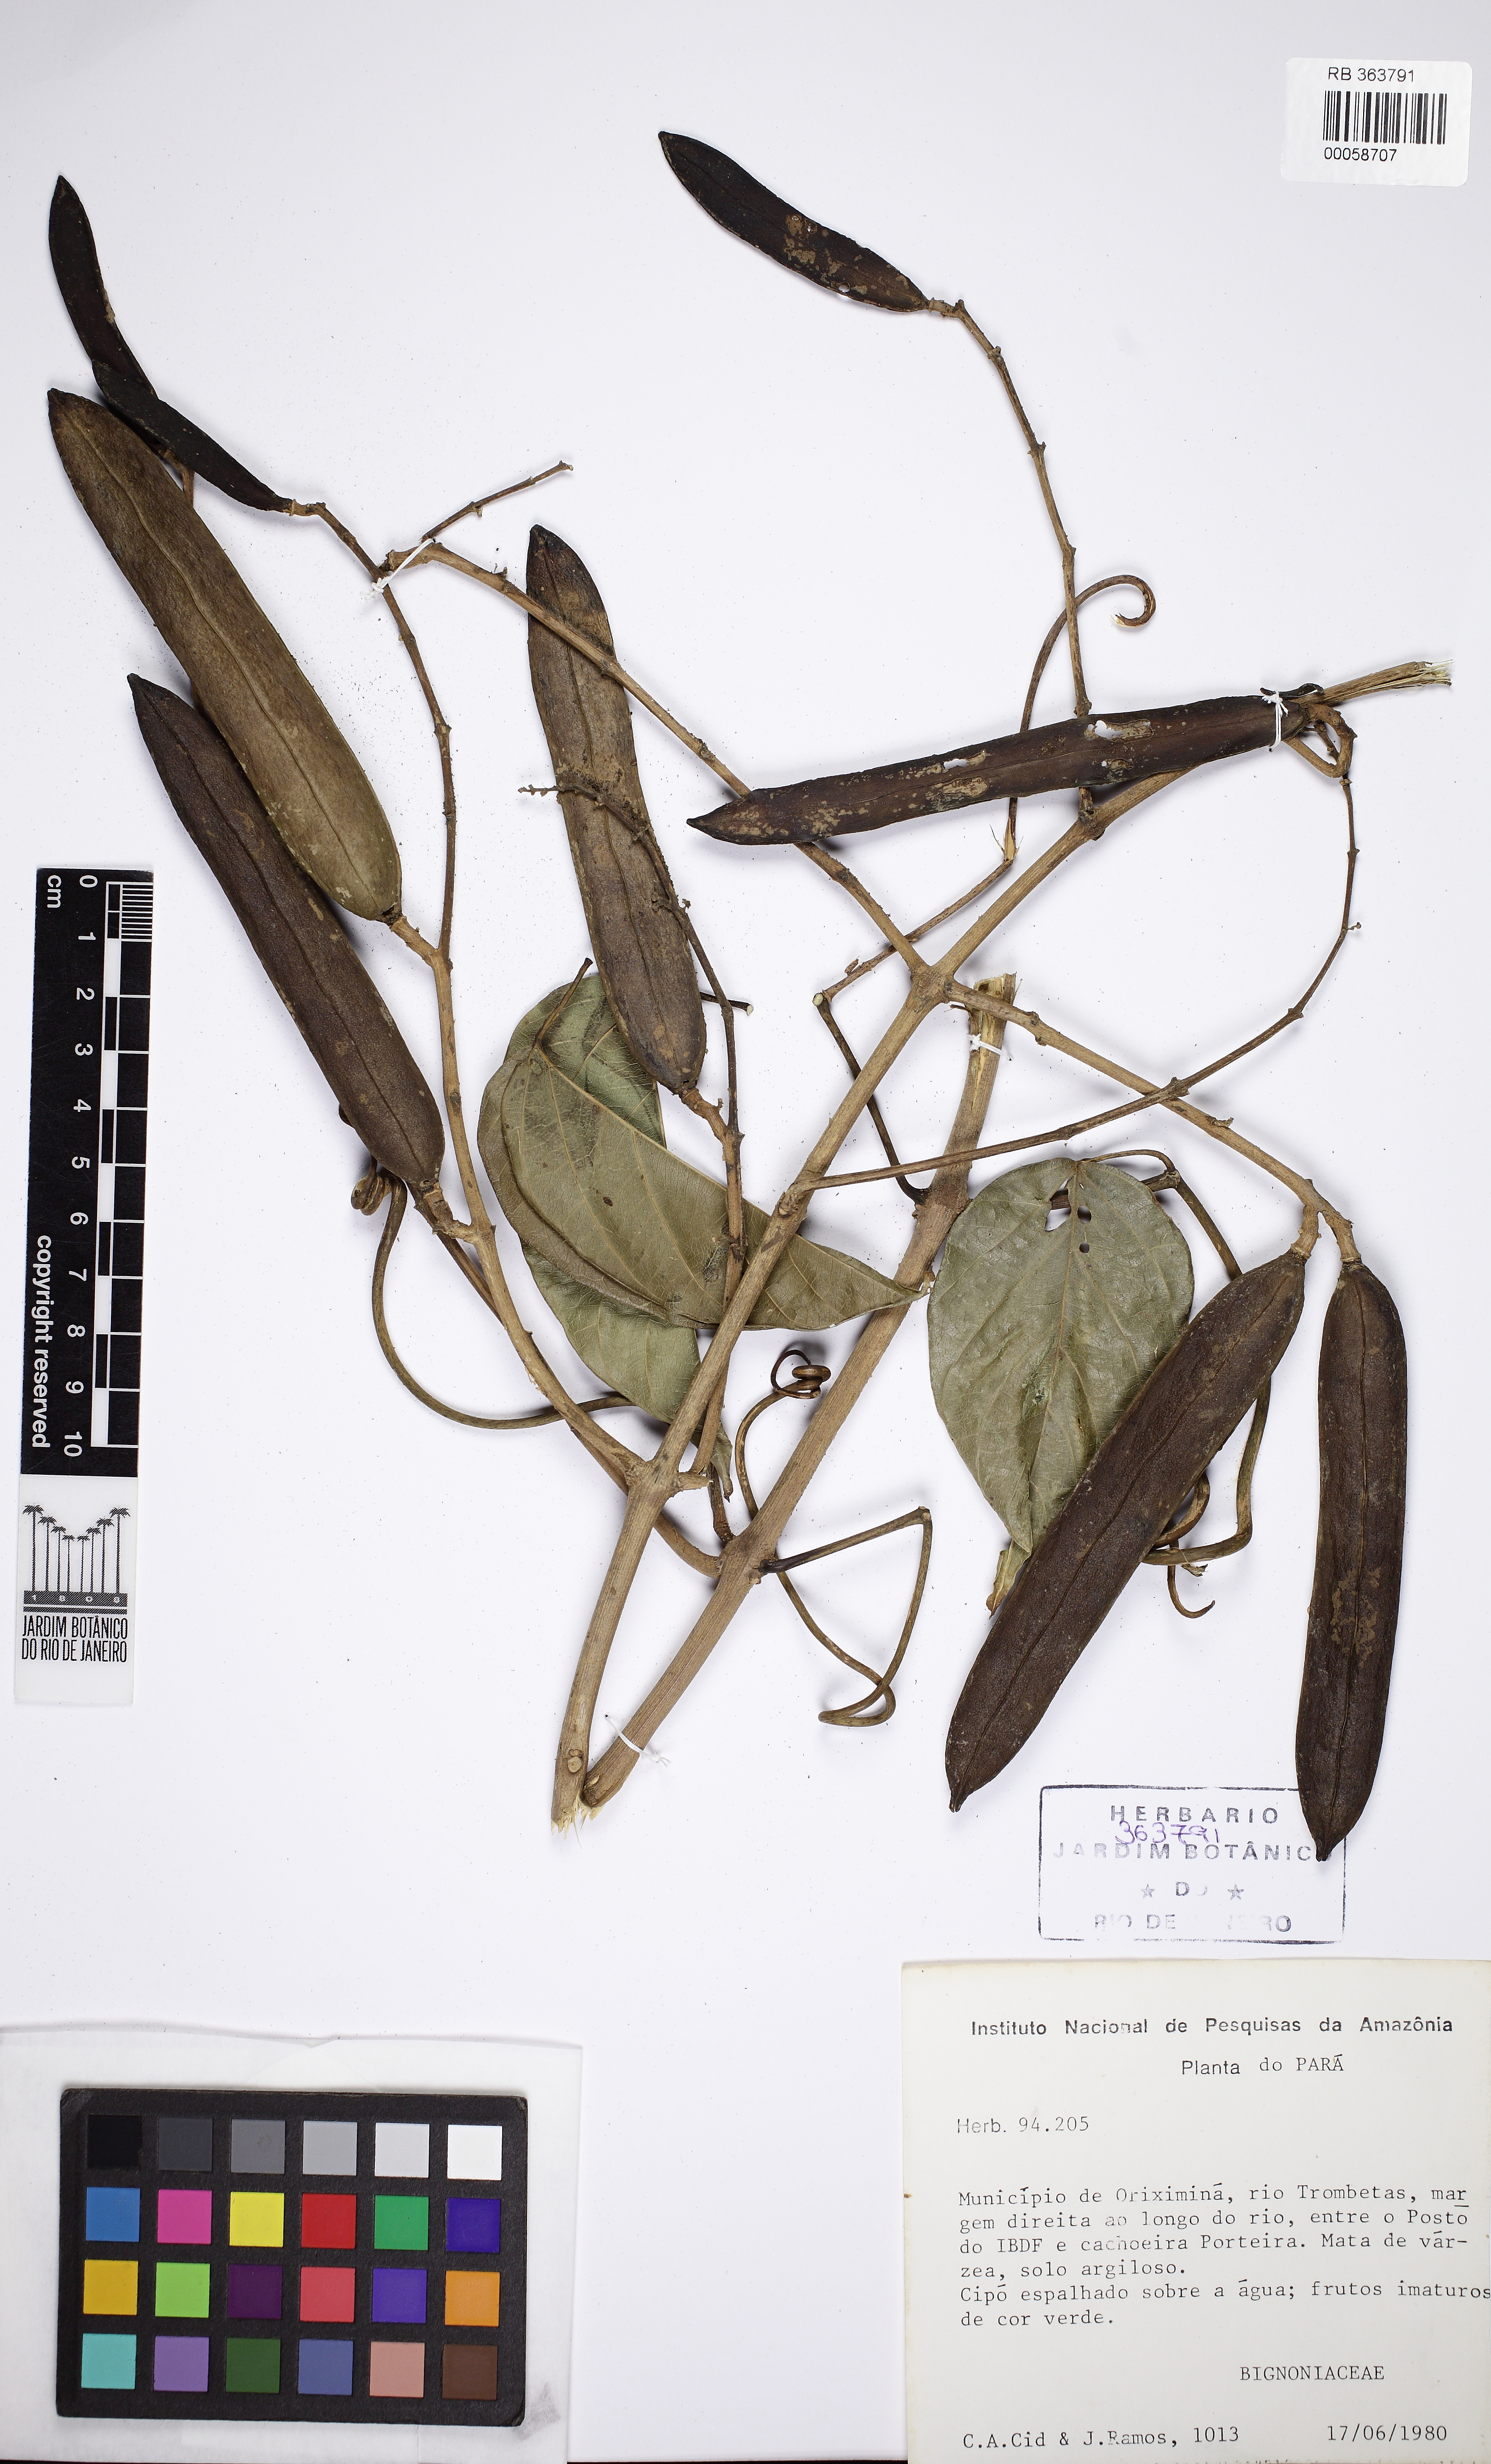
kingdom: Plantae
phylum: Tracheophyta
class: Magnoliopsida
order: Lamiales
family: Bignoniaceae
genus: Fridericia
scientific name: Fridericia spicata
